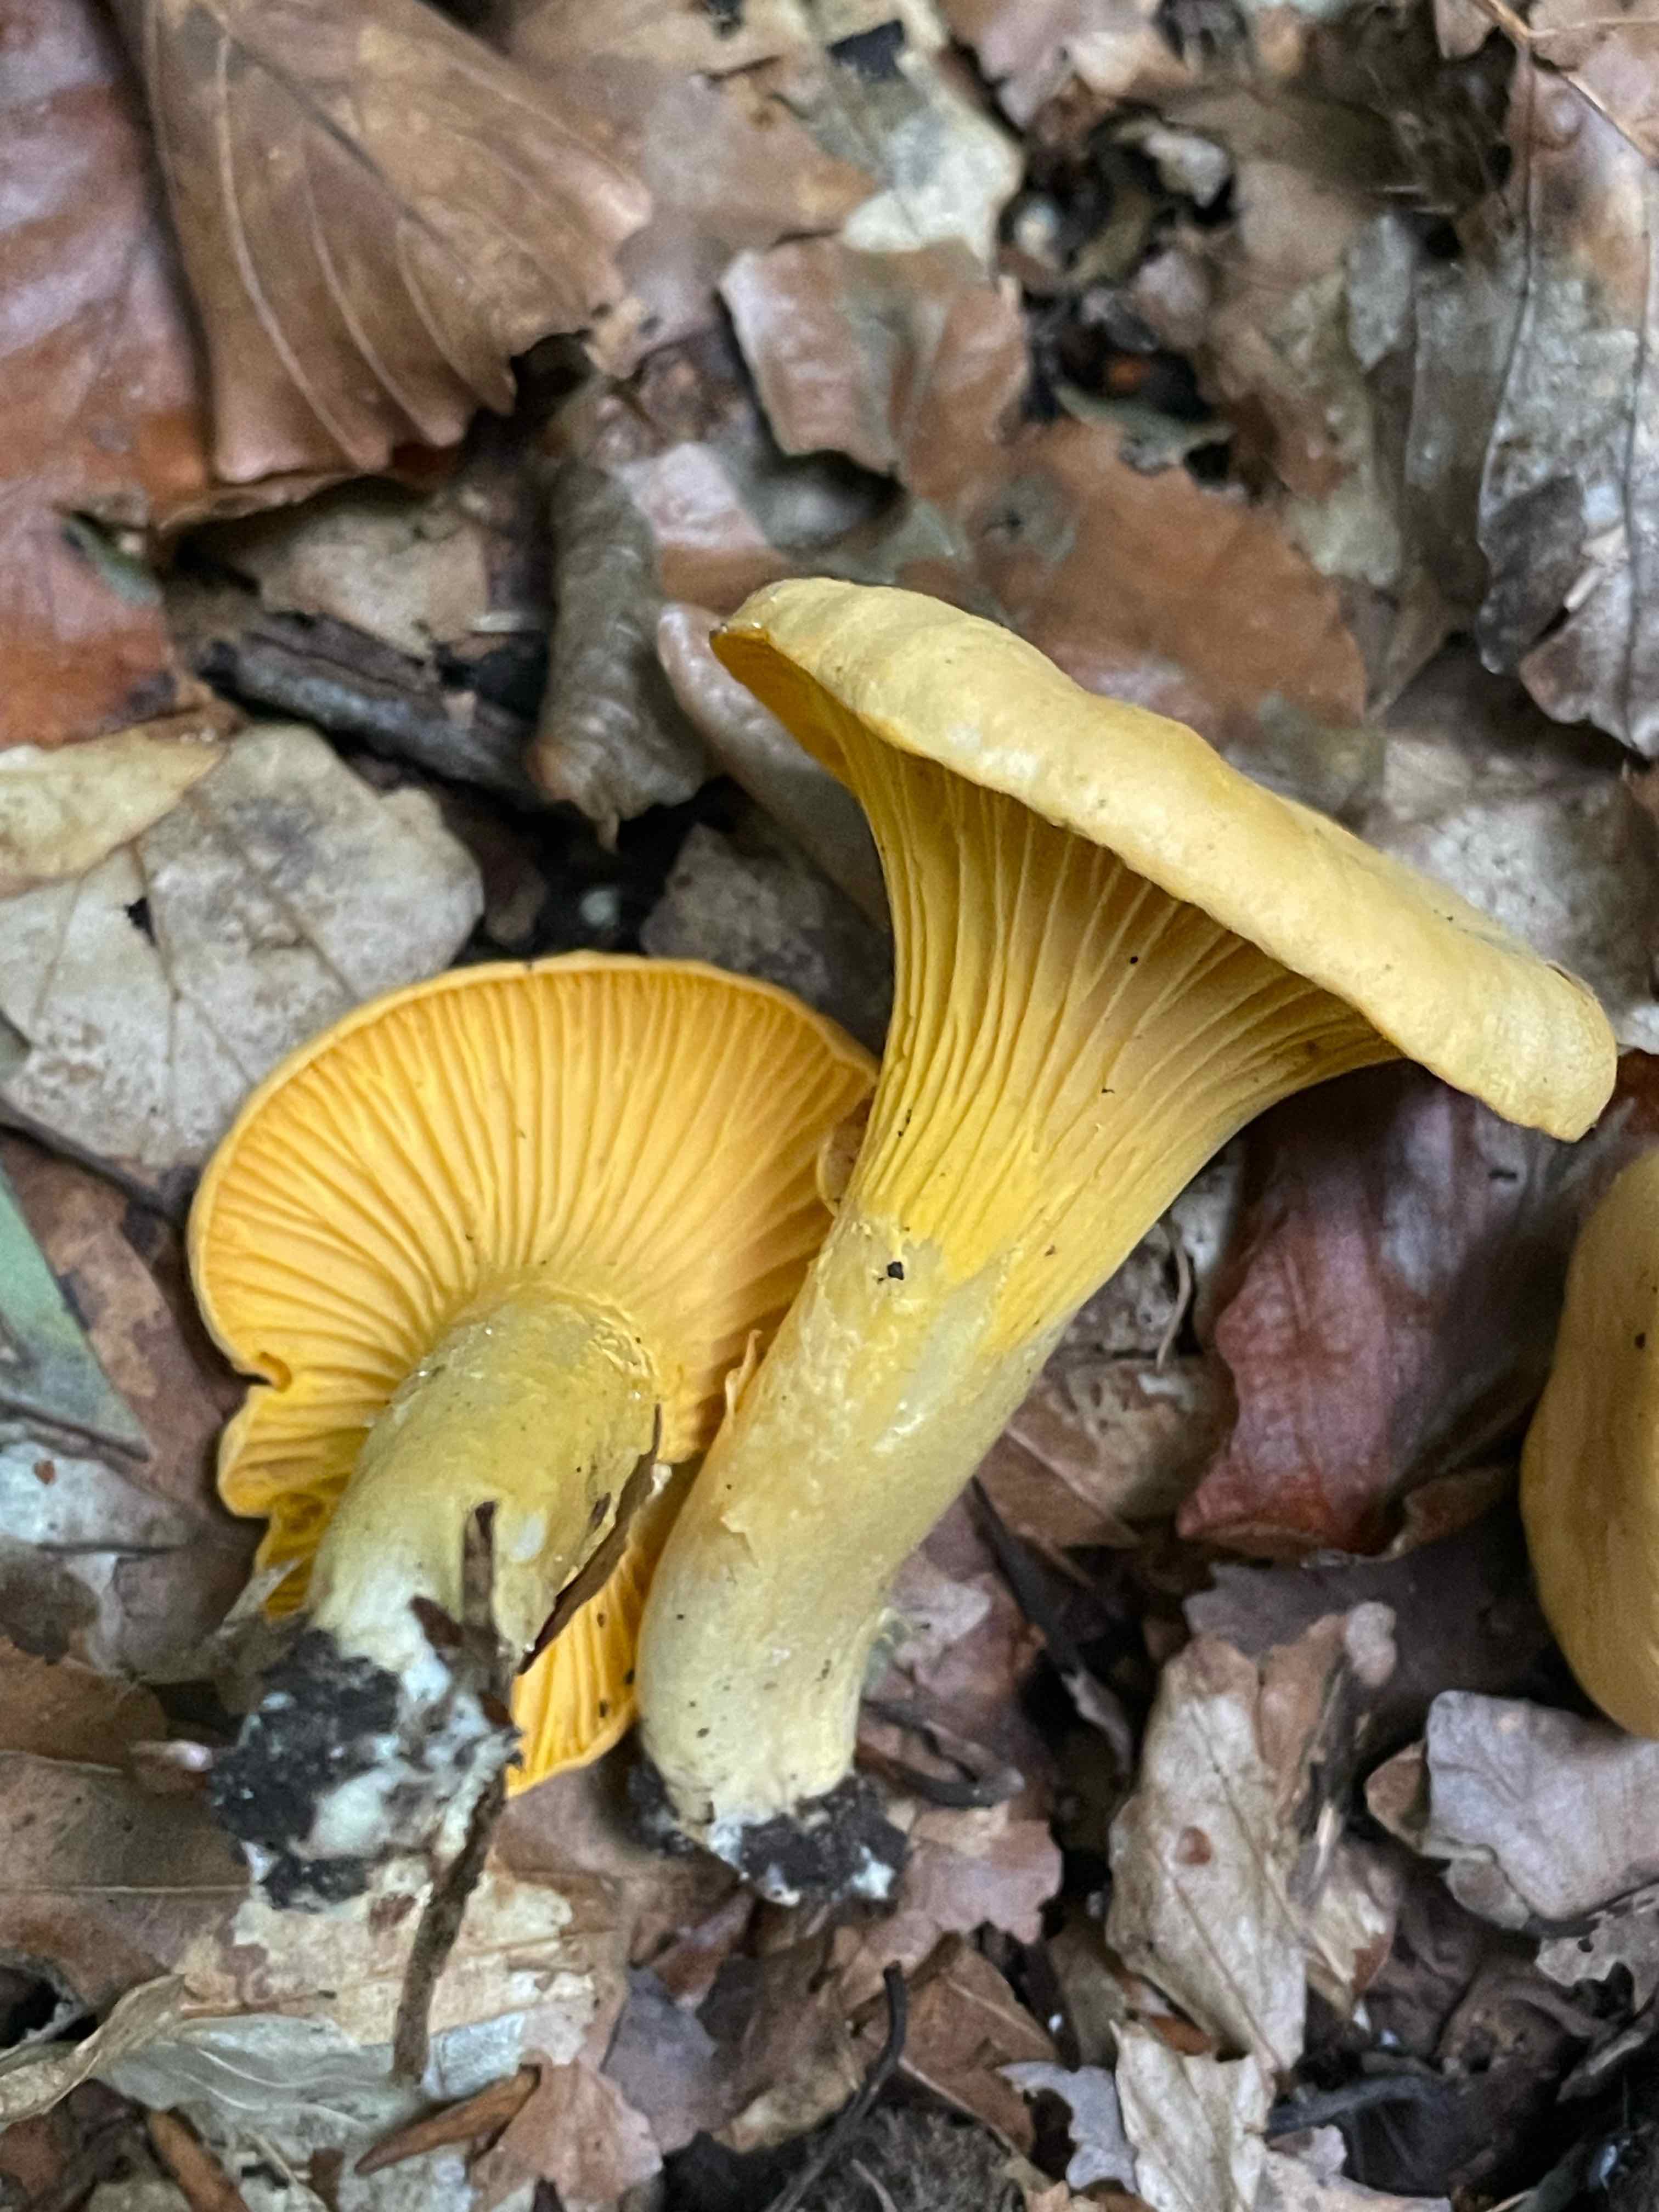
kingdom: Fungi
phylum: Basidiomycota
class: Agaricomycetes
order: Cantharellales
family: Hydnaceae
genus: Cantharellus
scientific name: Cantharellus cibarius
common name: almindelig kantarel
